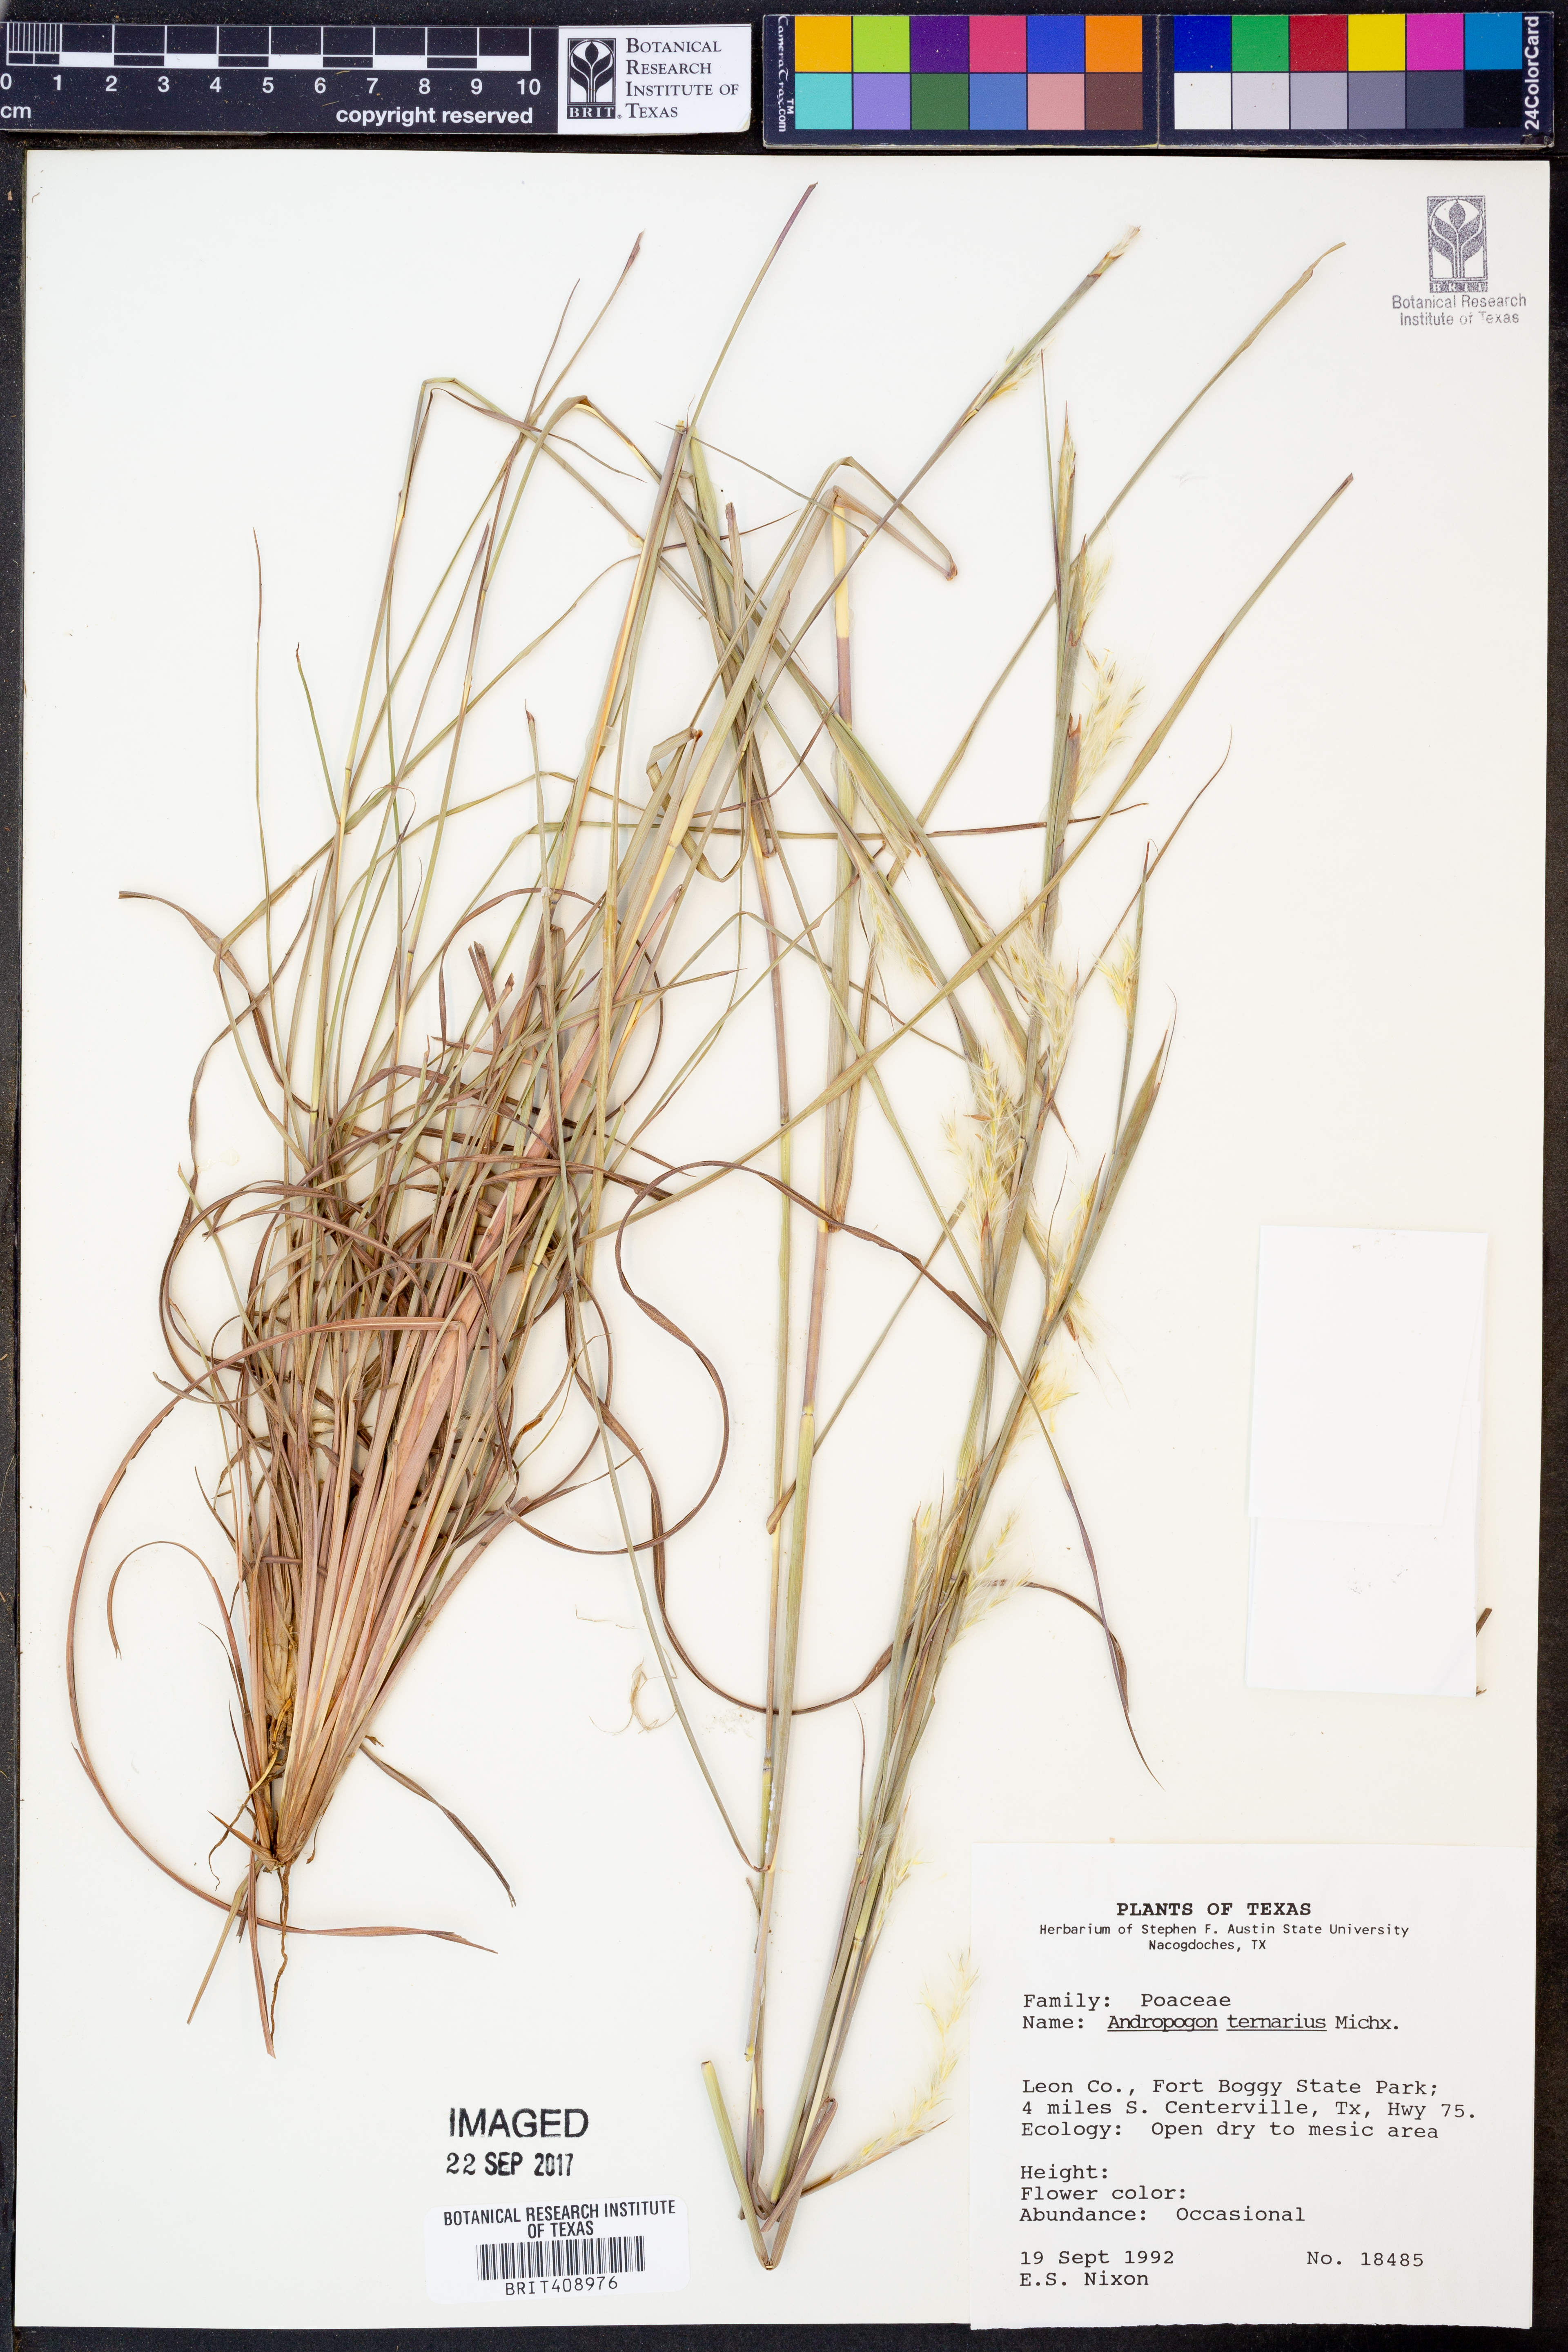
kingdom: Plantae
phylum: Tracheophyta
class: Liliopsida
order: Poales
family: Poaceae
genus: Andropogon
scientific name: Andropogon ternarius
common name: Split bluestem
